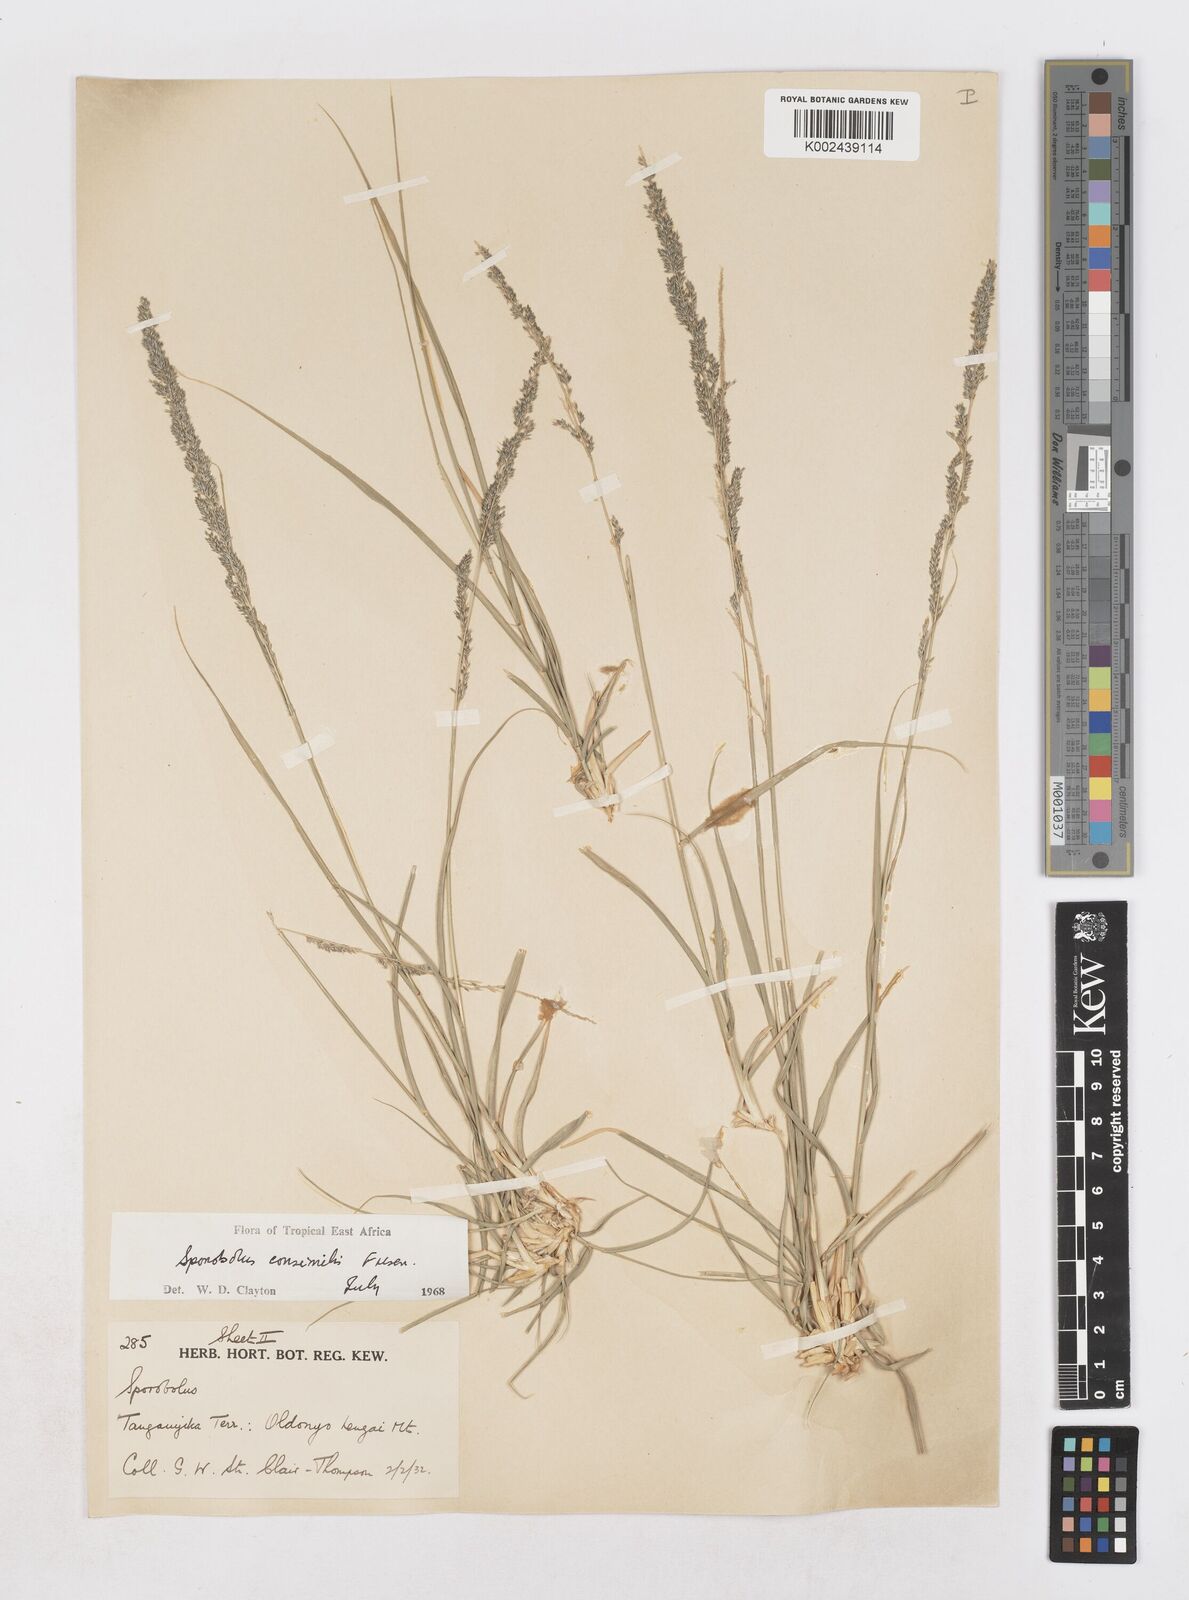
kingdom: Plantae
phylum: Tracheophyta
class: Liliopsida
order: Poales
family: Poaceae
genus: Sporobolus
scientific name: Sporobolus consimilis
